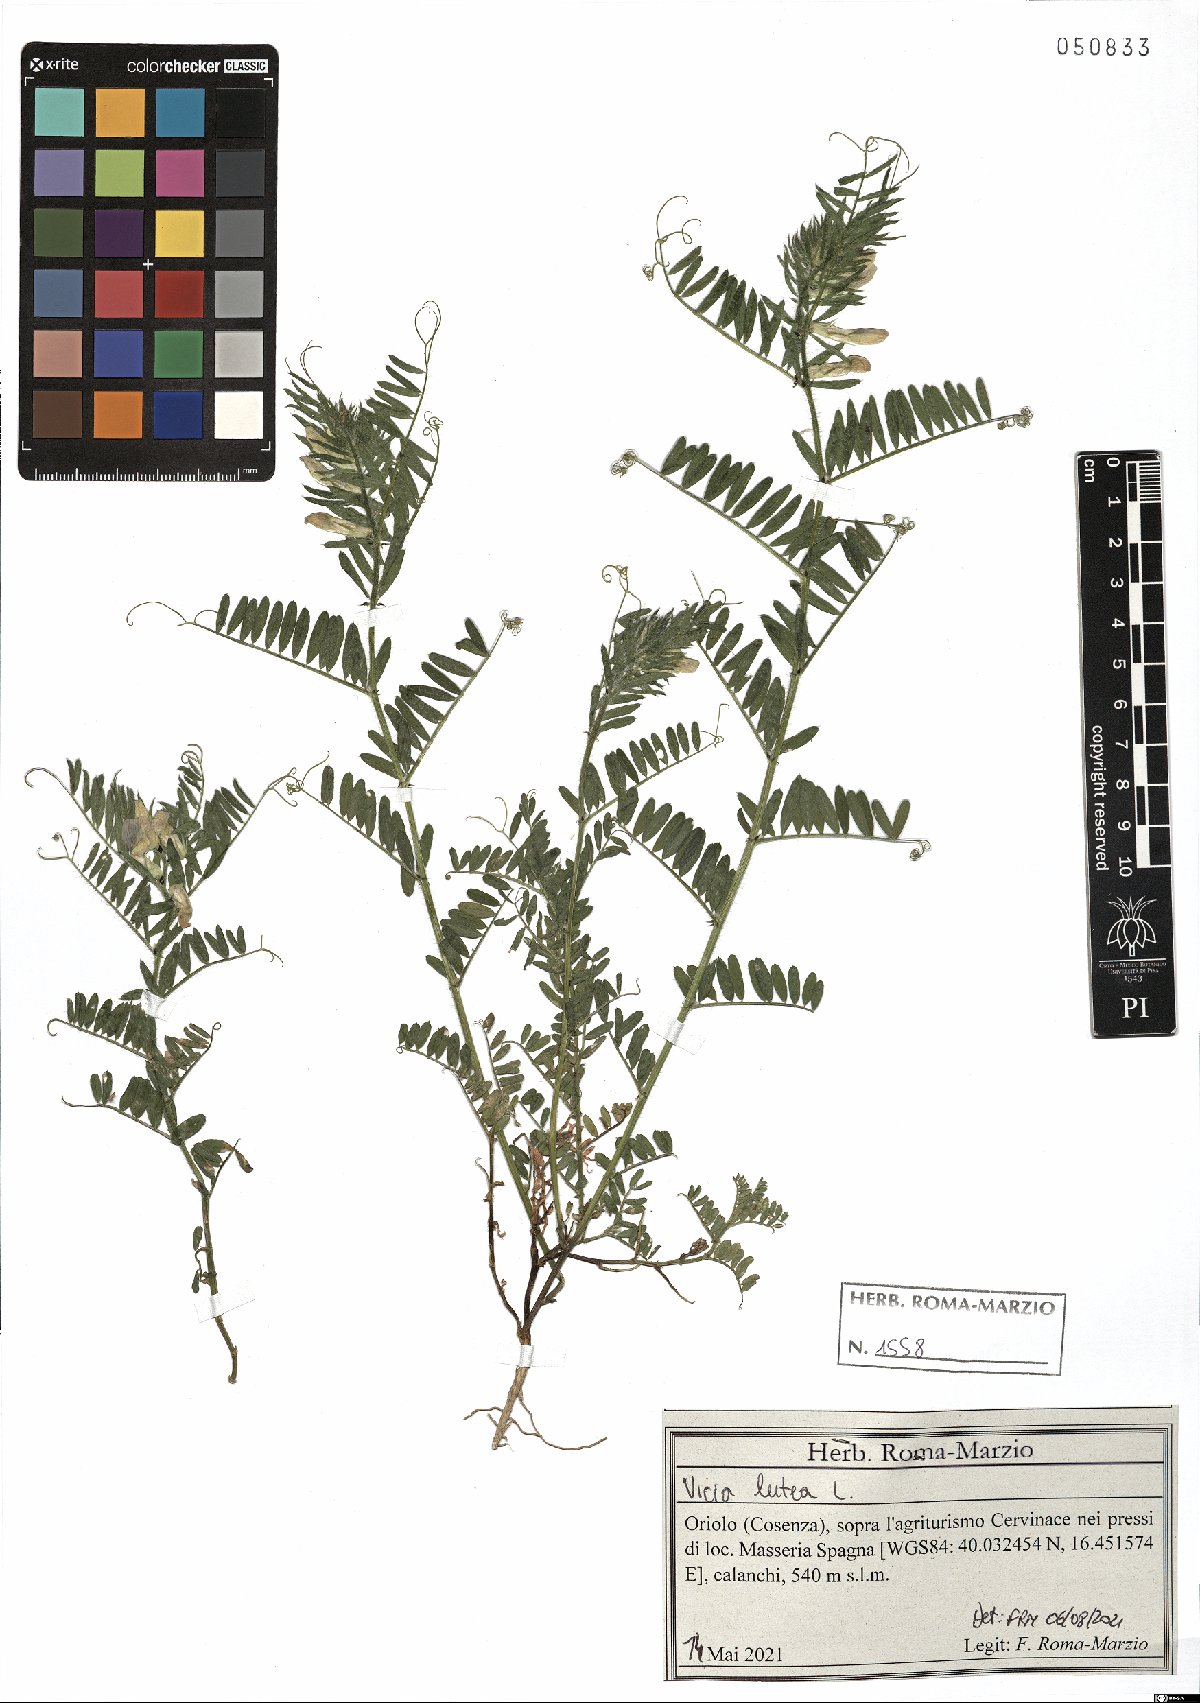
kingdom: Plantae
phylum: Tracheophyta
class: Magnoliopsida
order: Fabales
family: Fabaceae
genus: Vicia
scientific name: Vicia lutea
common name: Smooth yellow vetch
